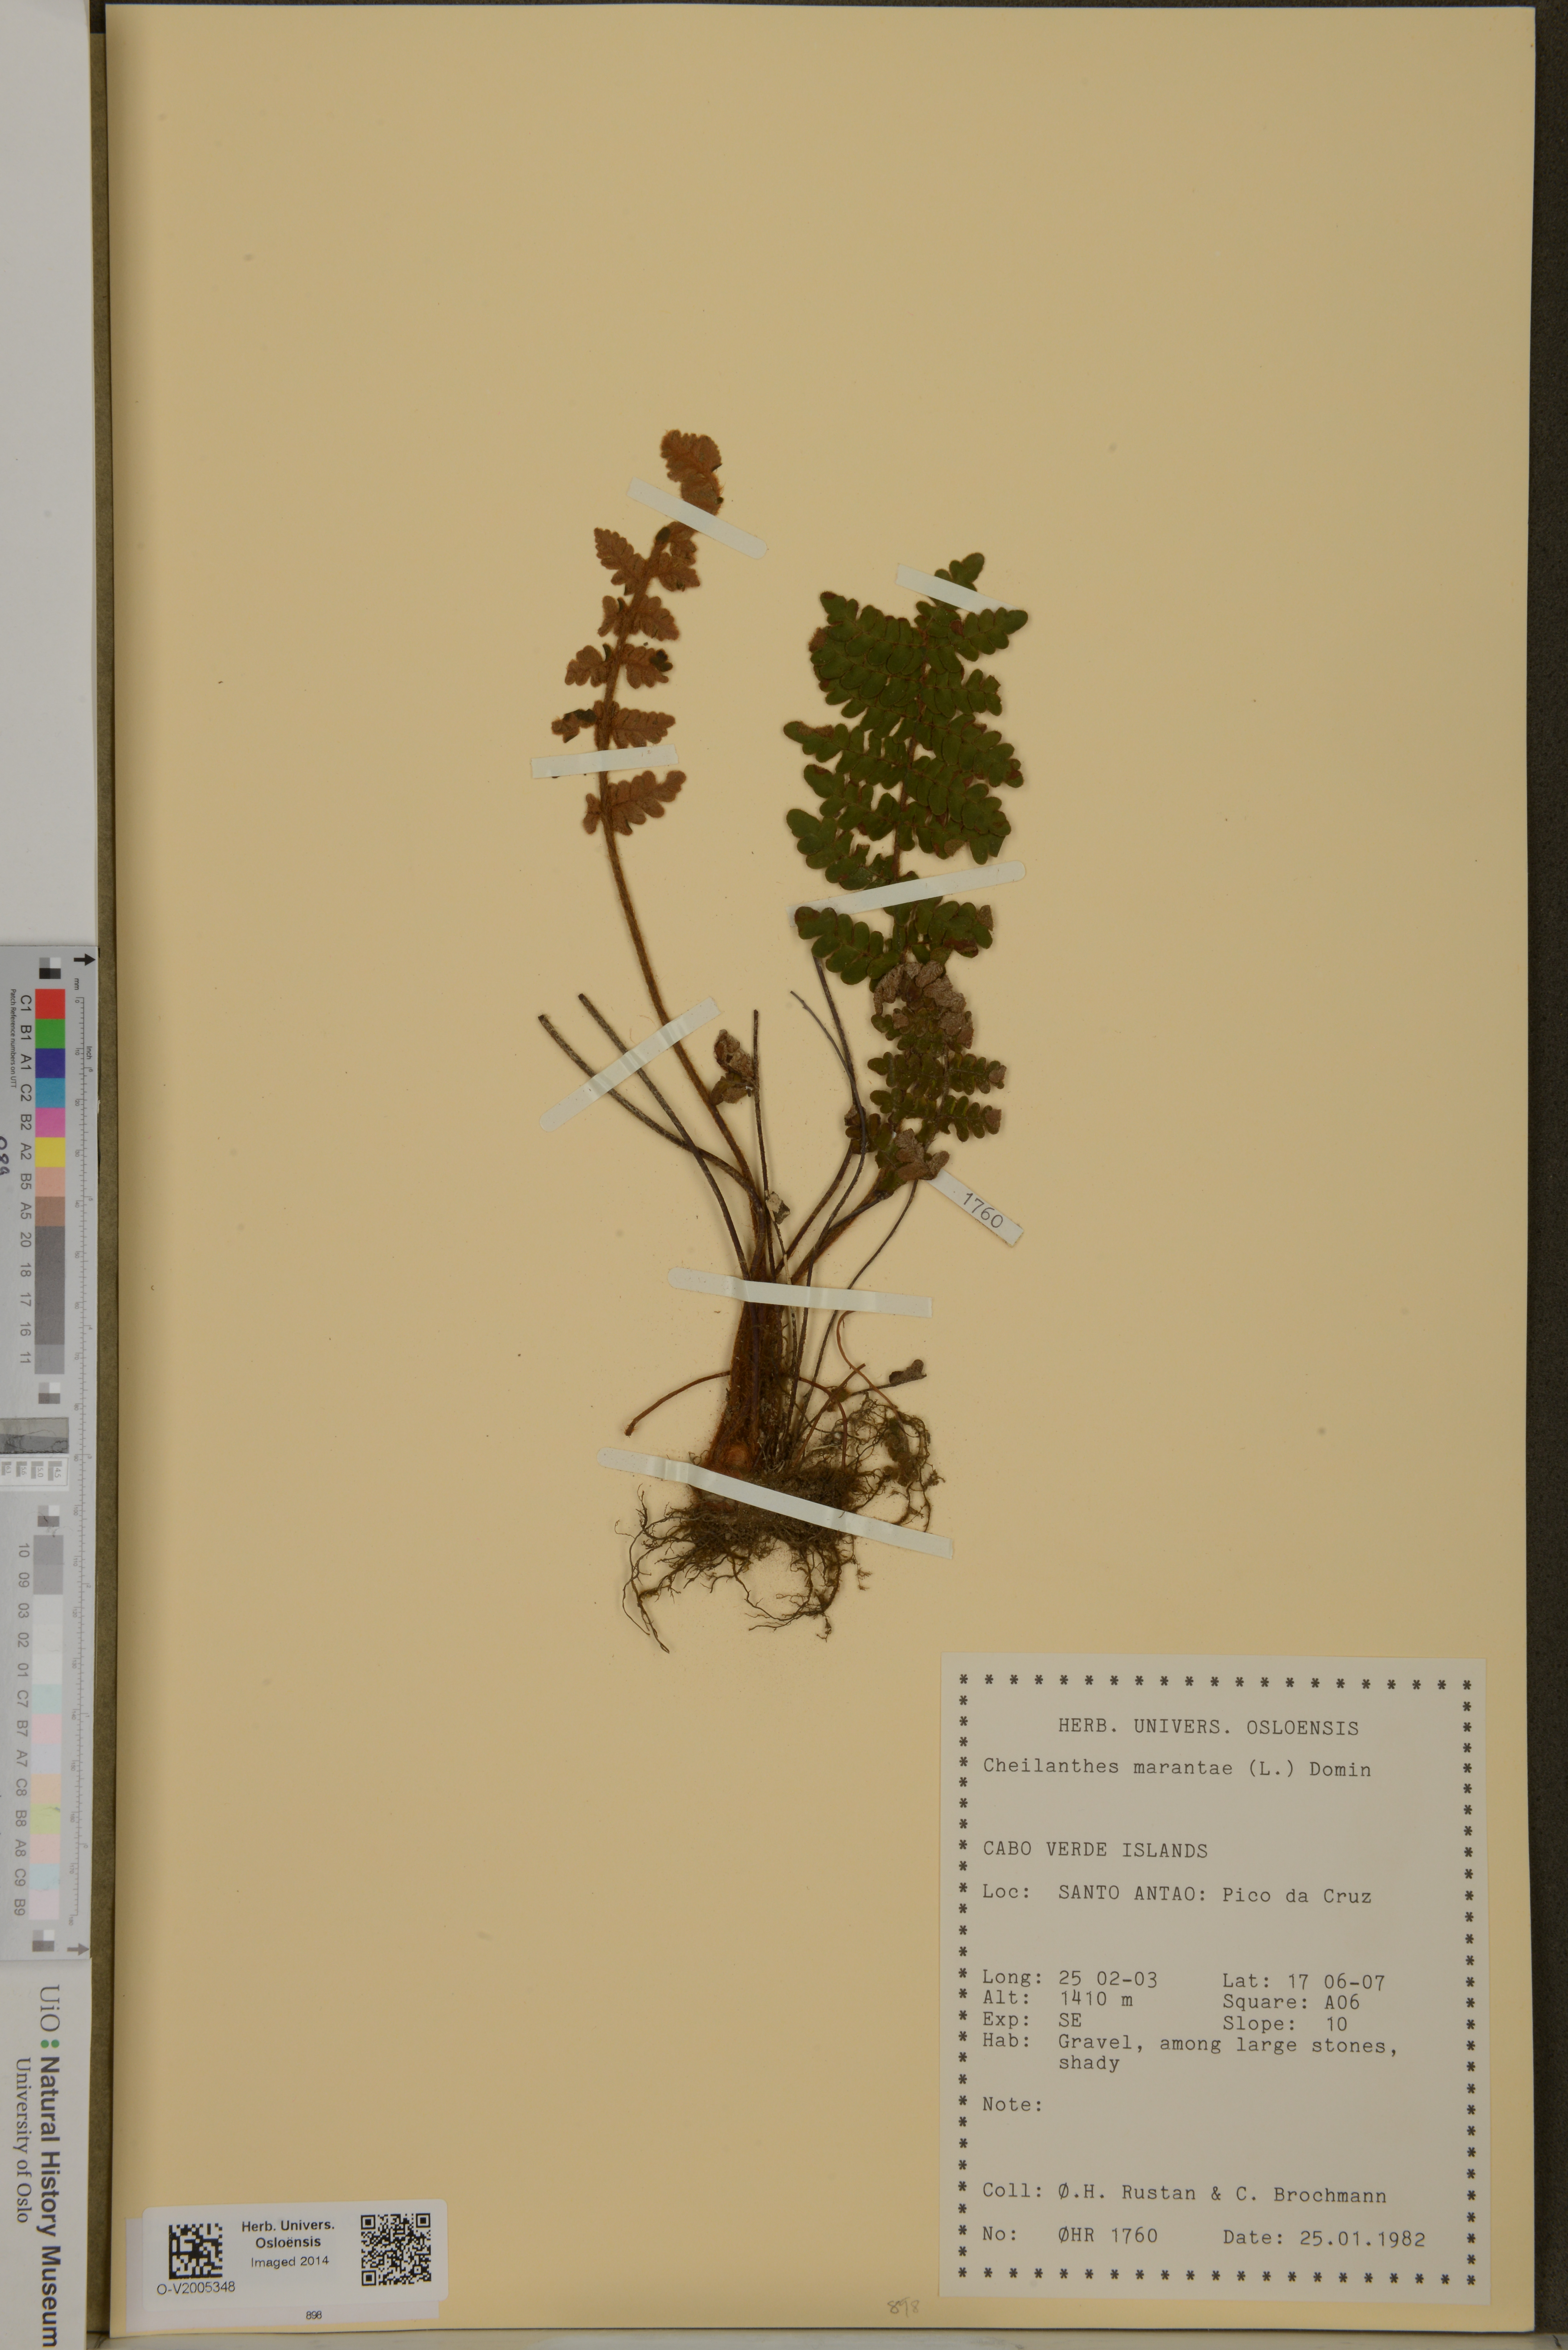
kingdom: Plantae
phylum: Tracheophyta
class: Polypodiopsida
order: Polypodiales
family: Pteridaceae
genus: Paragymnopteris
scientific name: Paragymnopteris marantae
